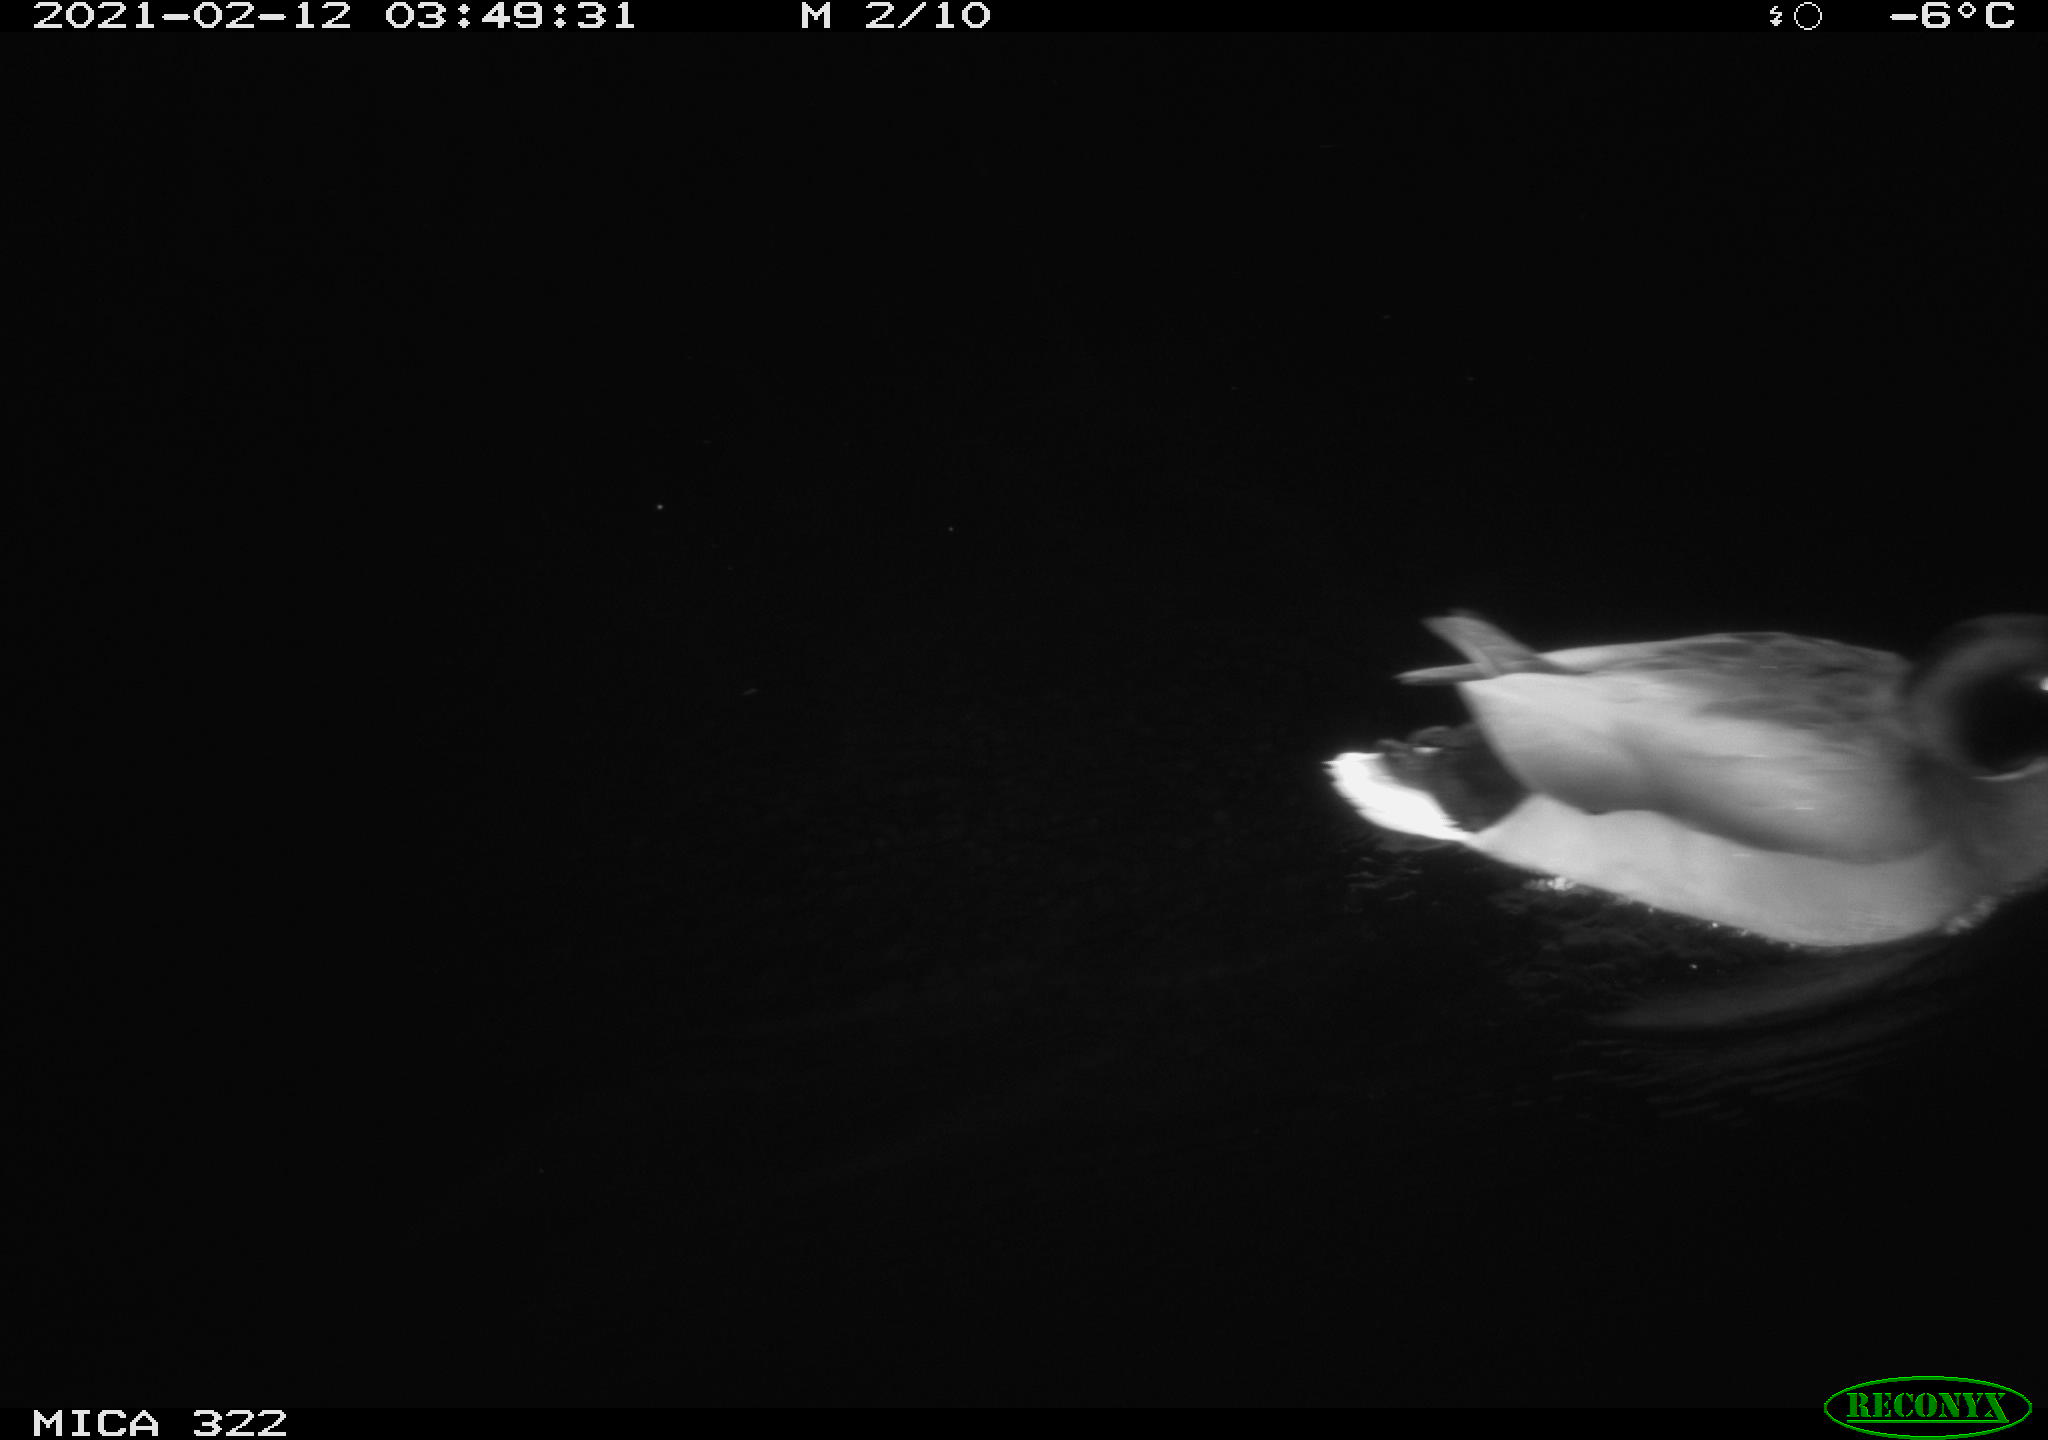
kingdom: Animalia
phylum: Chordata
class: Aves
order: Anseriformes
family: Anatidae
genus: Anas
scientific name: Anas platyrhynchos
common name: Mallard
